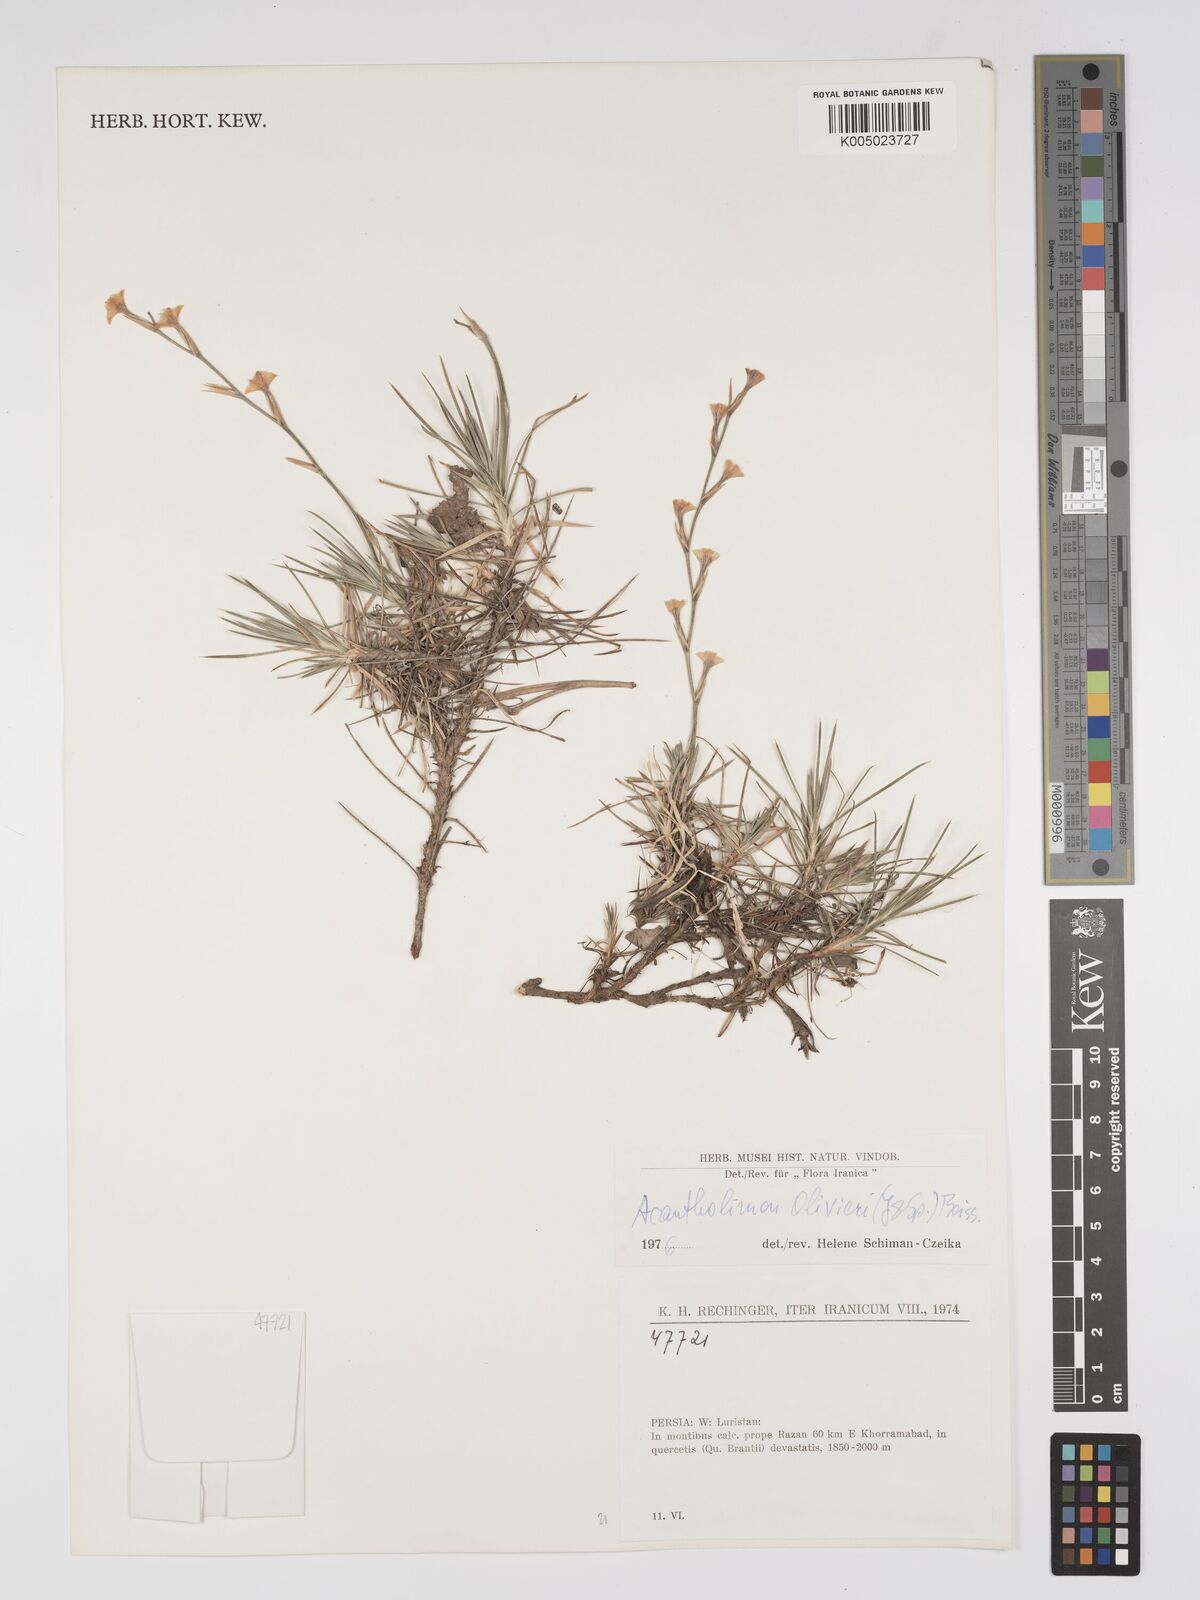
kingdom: Plantae
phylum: Tracheophyta
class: Magnoliopsida
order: Caryophyllales
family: Plumbaginaceae
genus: Acantholimon
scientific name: Acantholimon oliveri
